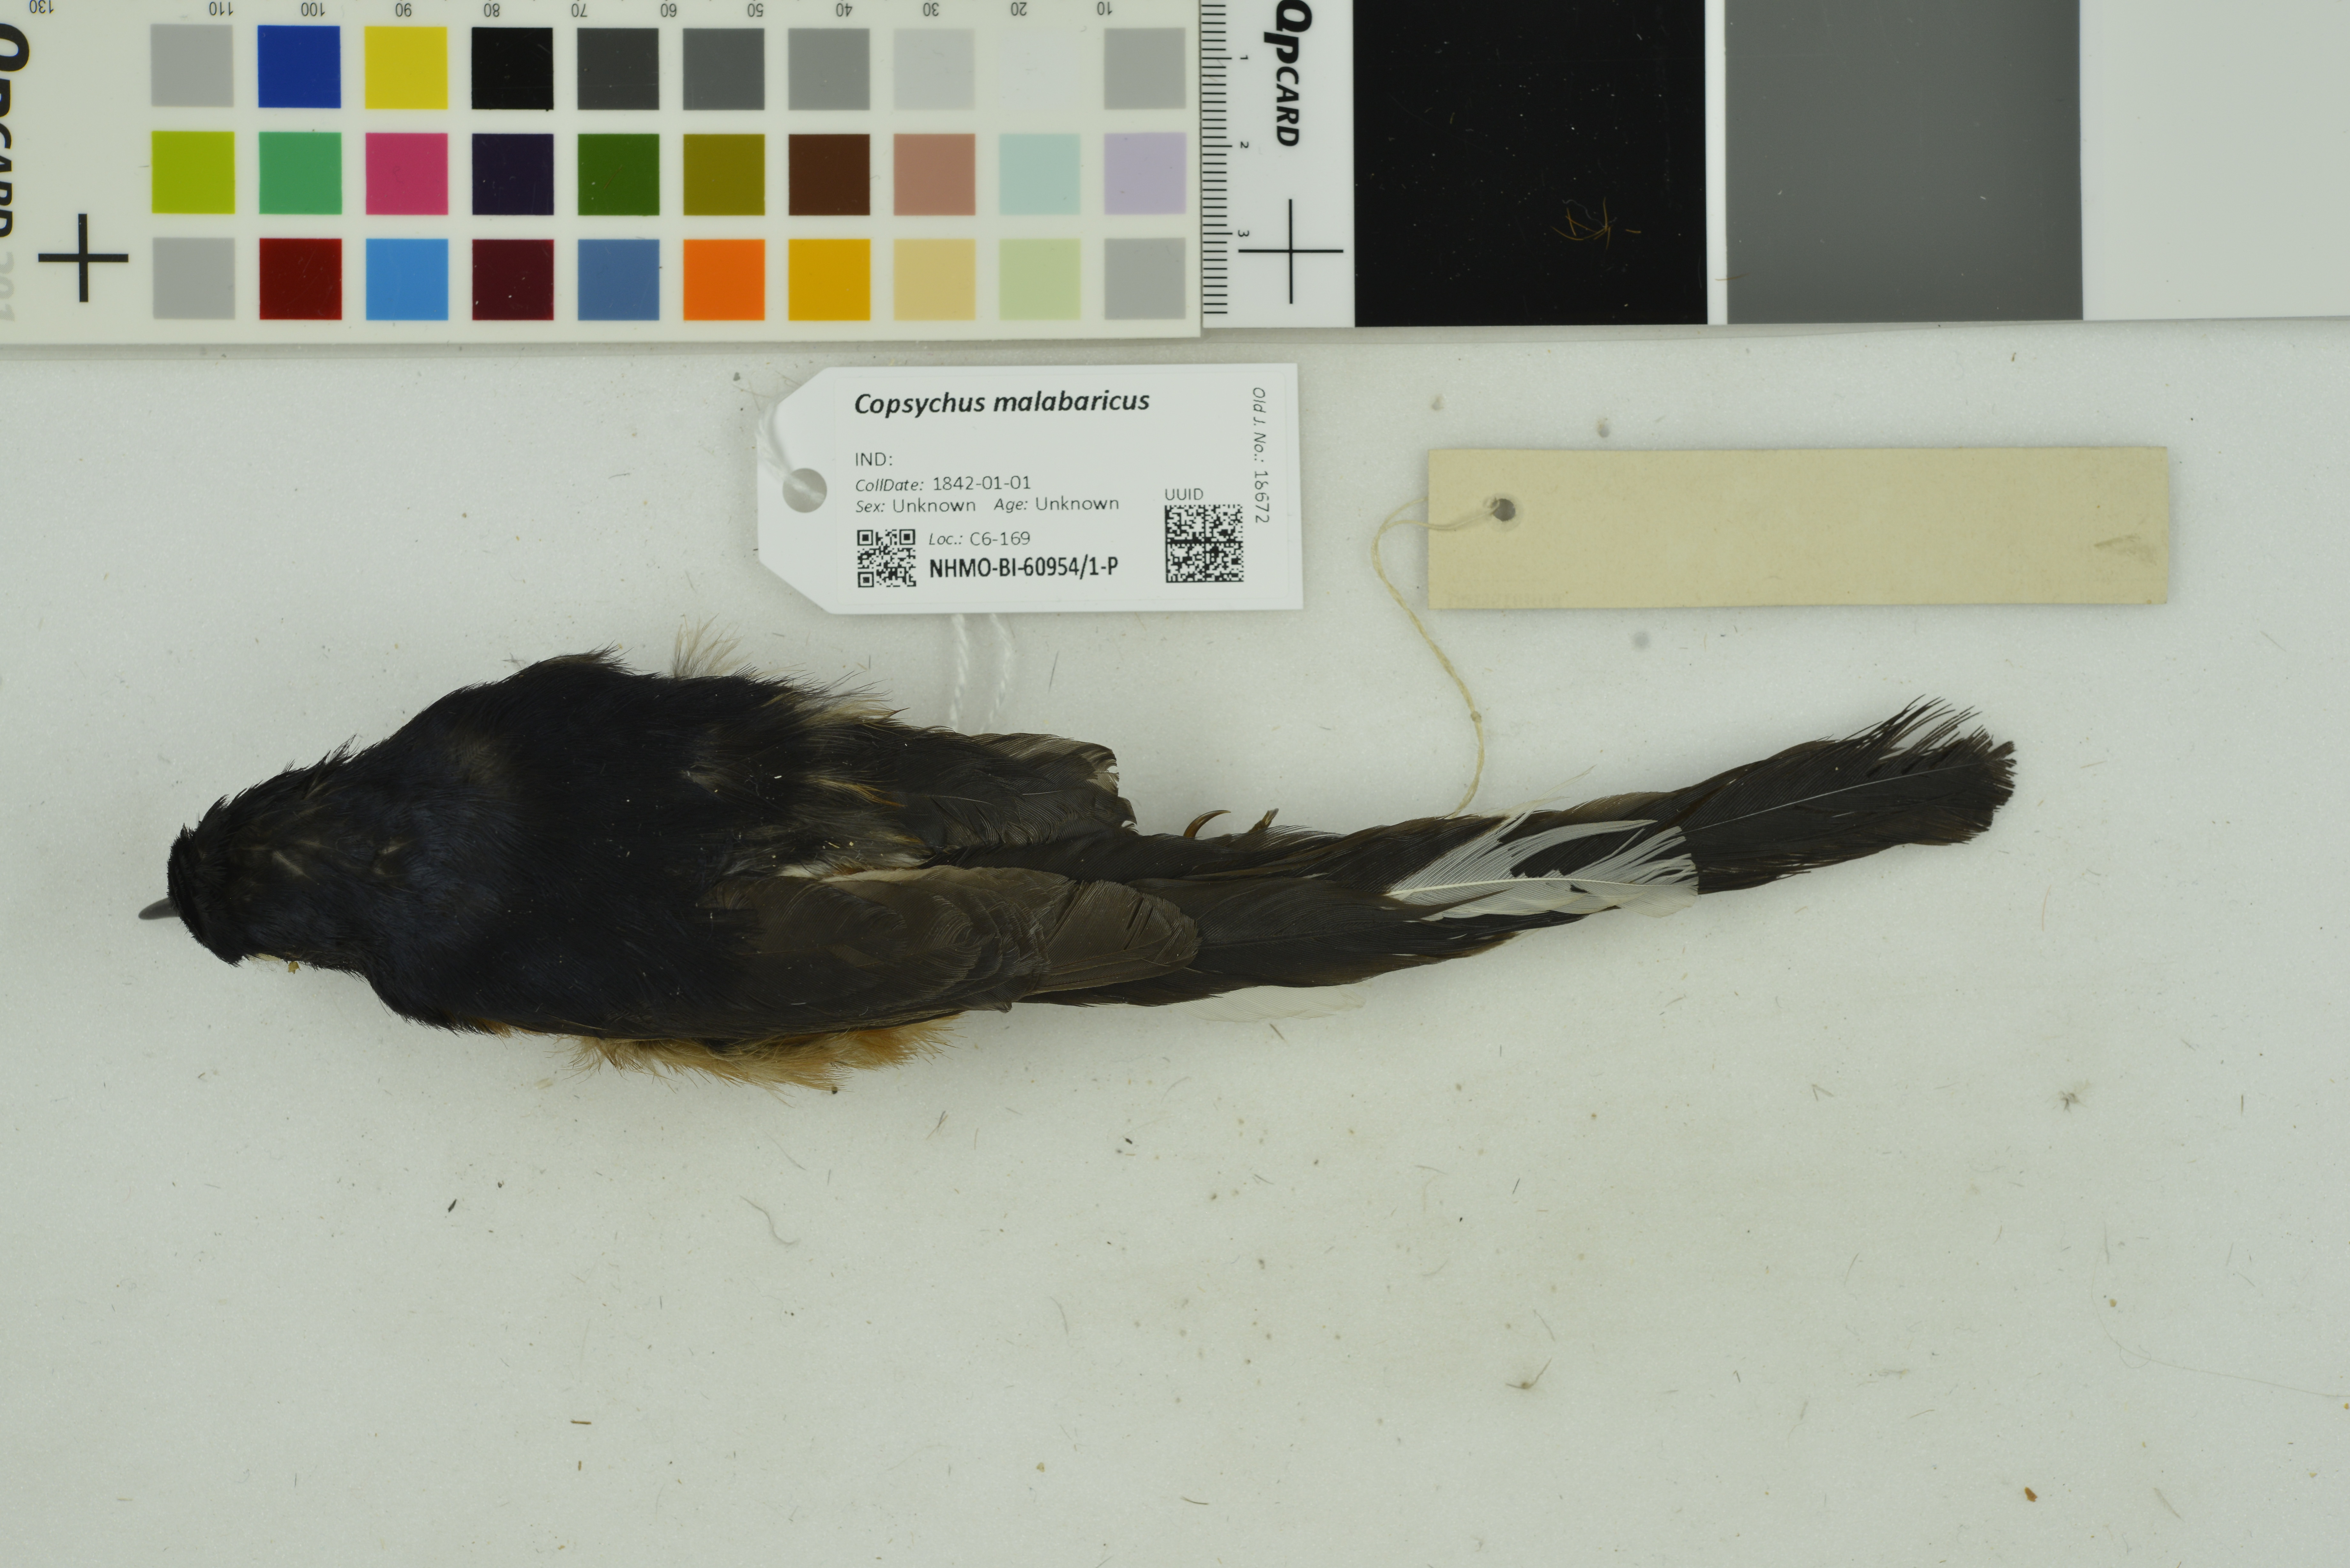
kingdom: Animalia
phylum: Chordata
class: Aves
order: Passeriformes
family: Muscicapidae
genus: Copsychus
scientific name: Copsychus malabaricus
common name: White-rumped shama
